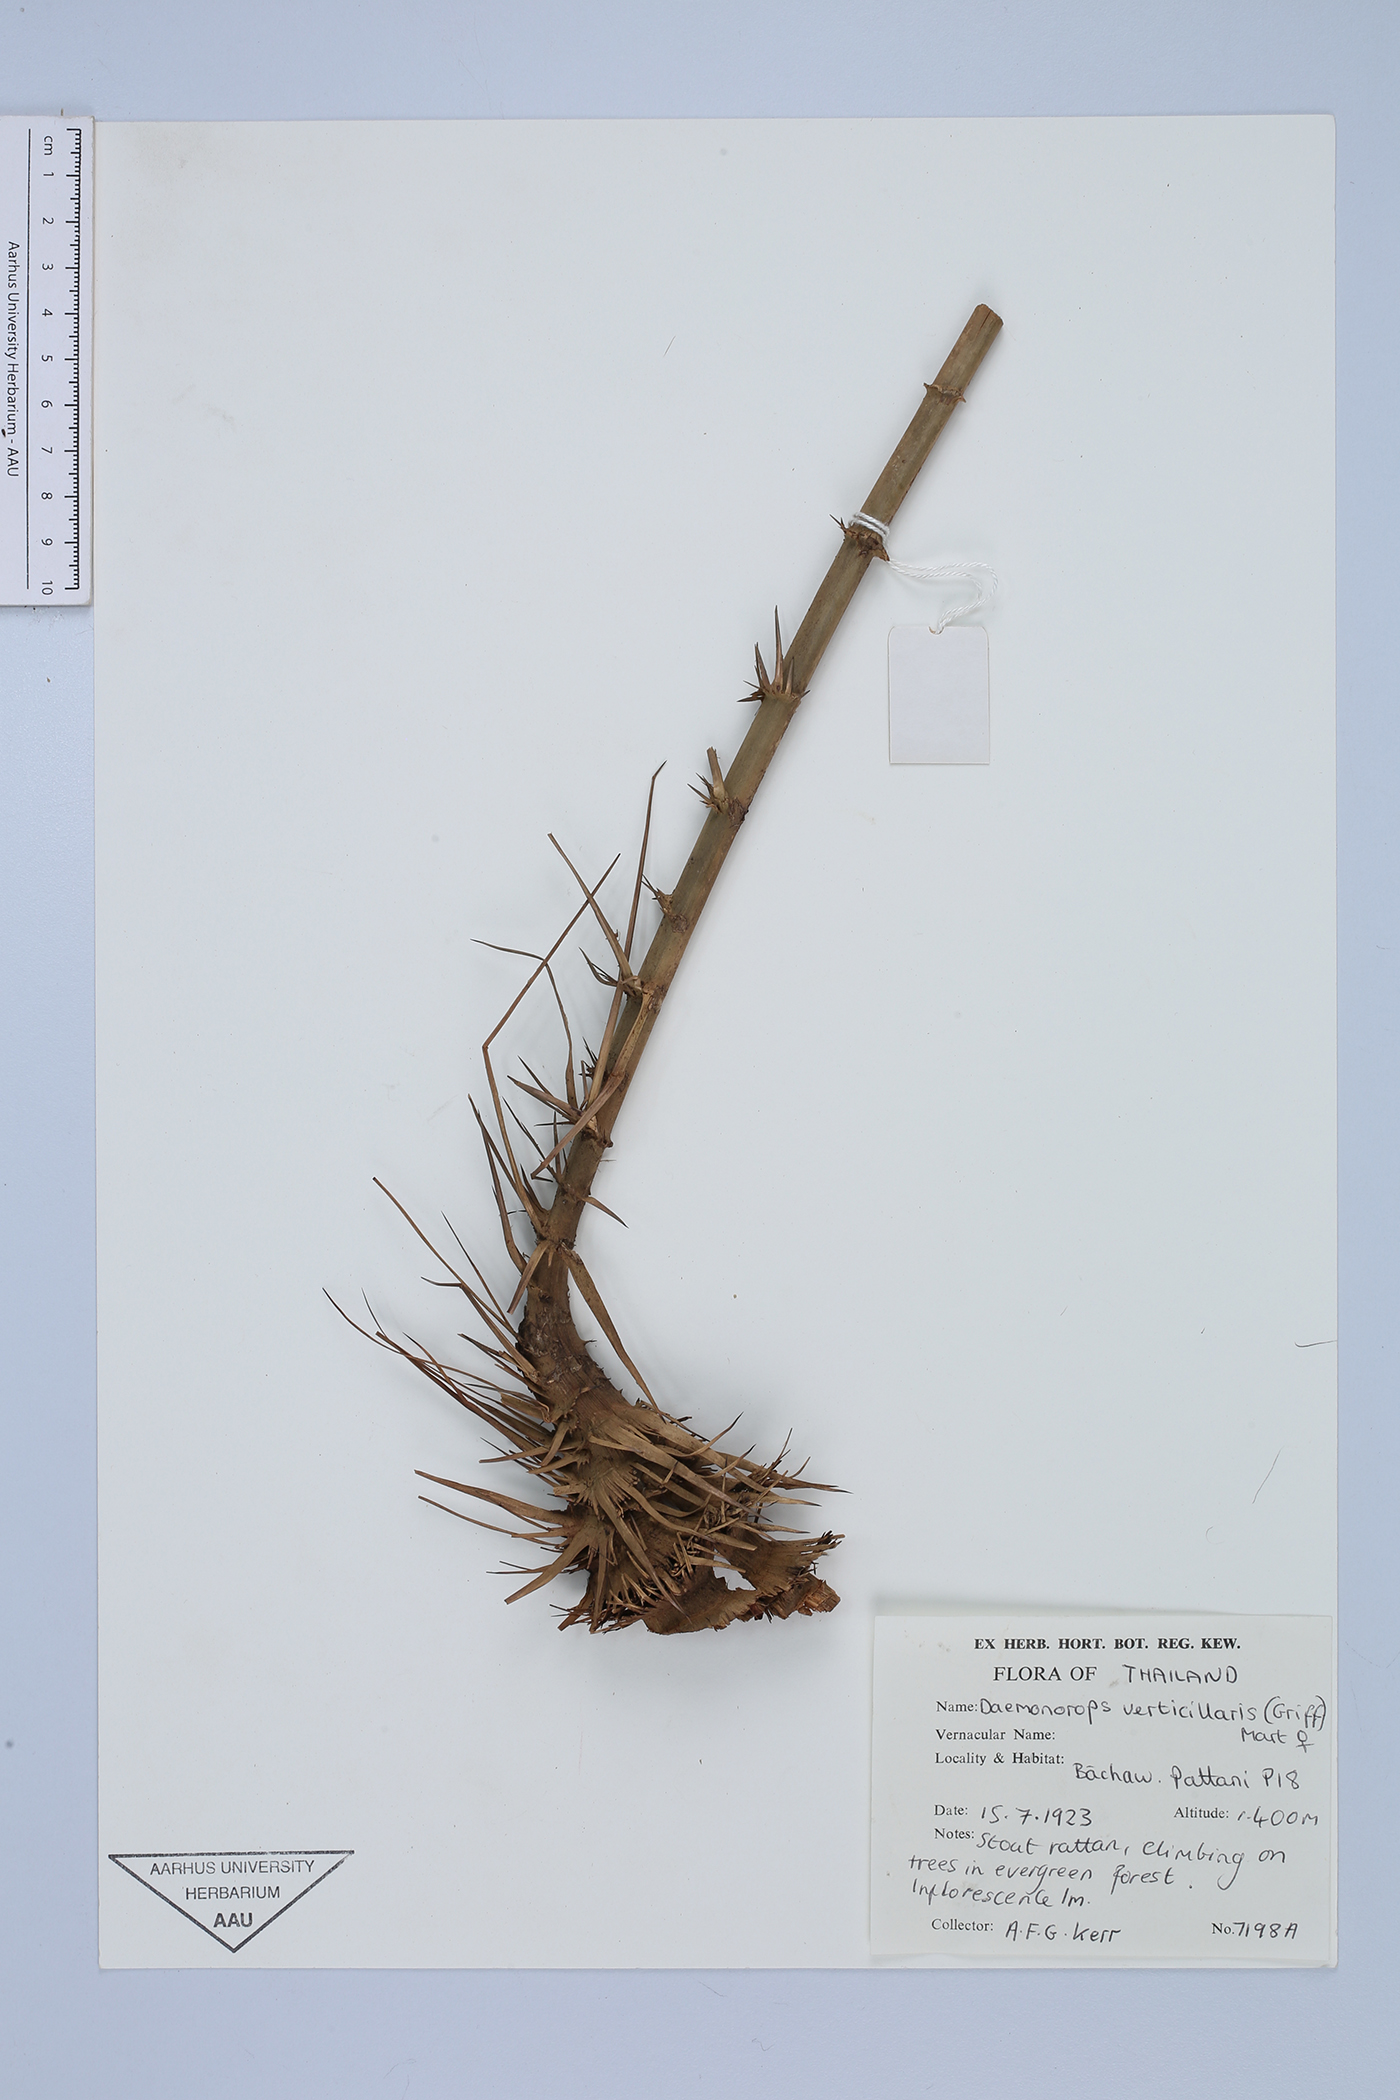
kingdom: Plantae
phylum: Tracheophyta
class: Liliopsida
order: Arecales
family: Arecaceae
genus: Calamus
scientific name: Calamus verticillaris
